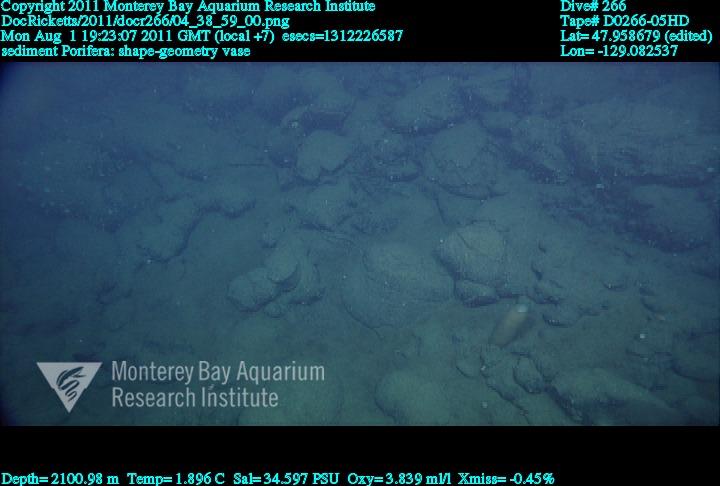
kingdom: Animalia
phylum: Porifera
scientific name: Porifera
